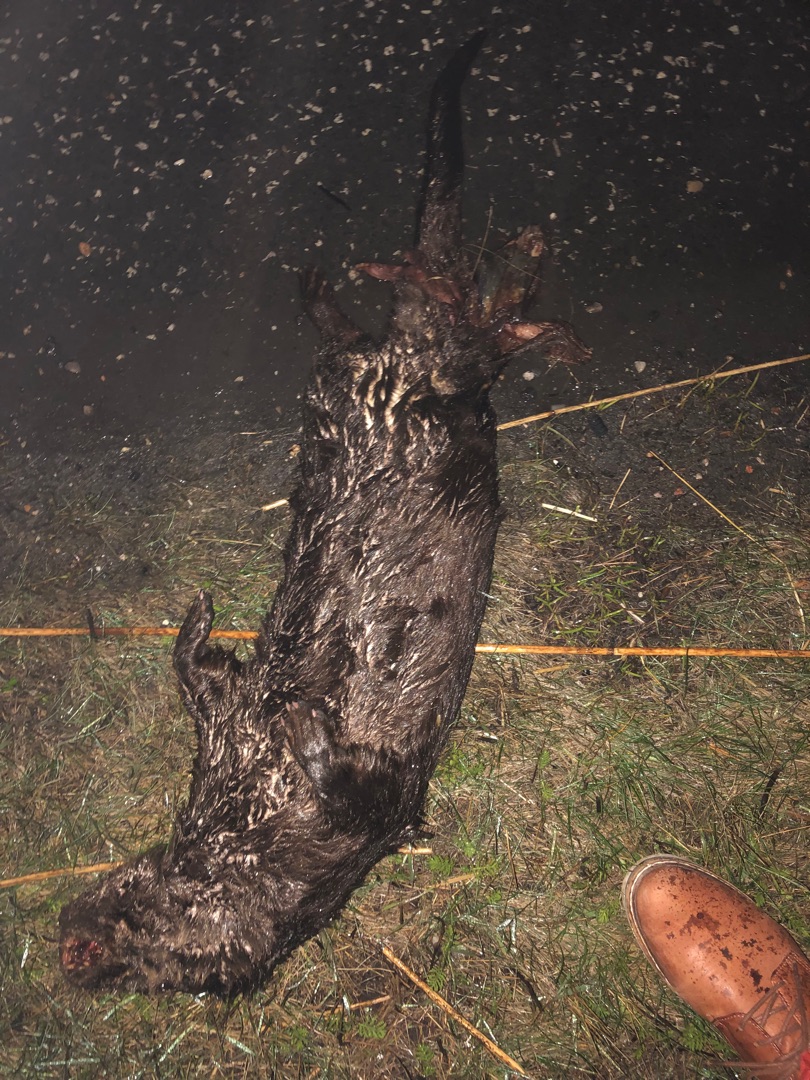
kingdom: Animalia
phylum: Chordata
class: Mammalia
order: Carnivora
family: Mustelidae
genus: Lutra
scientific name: Lutra lutra
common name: Odder
